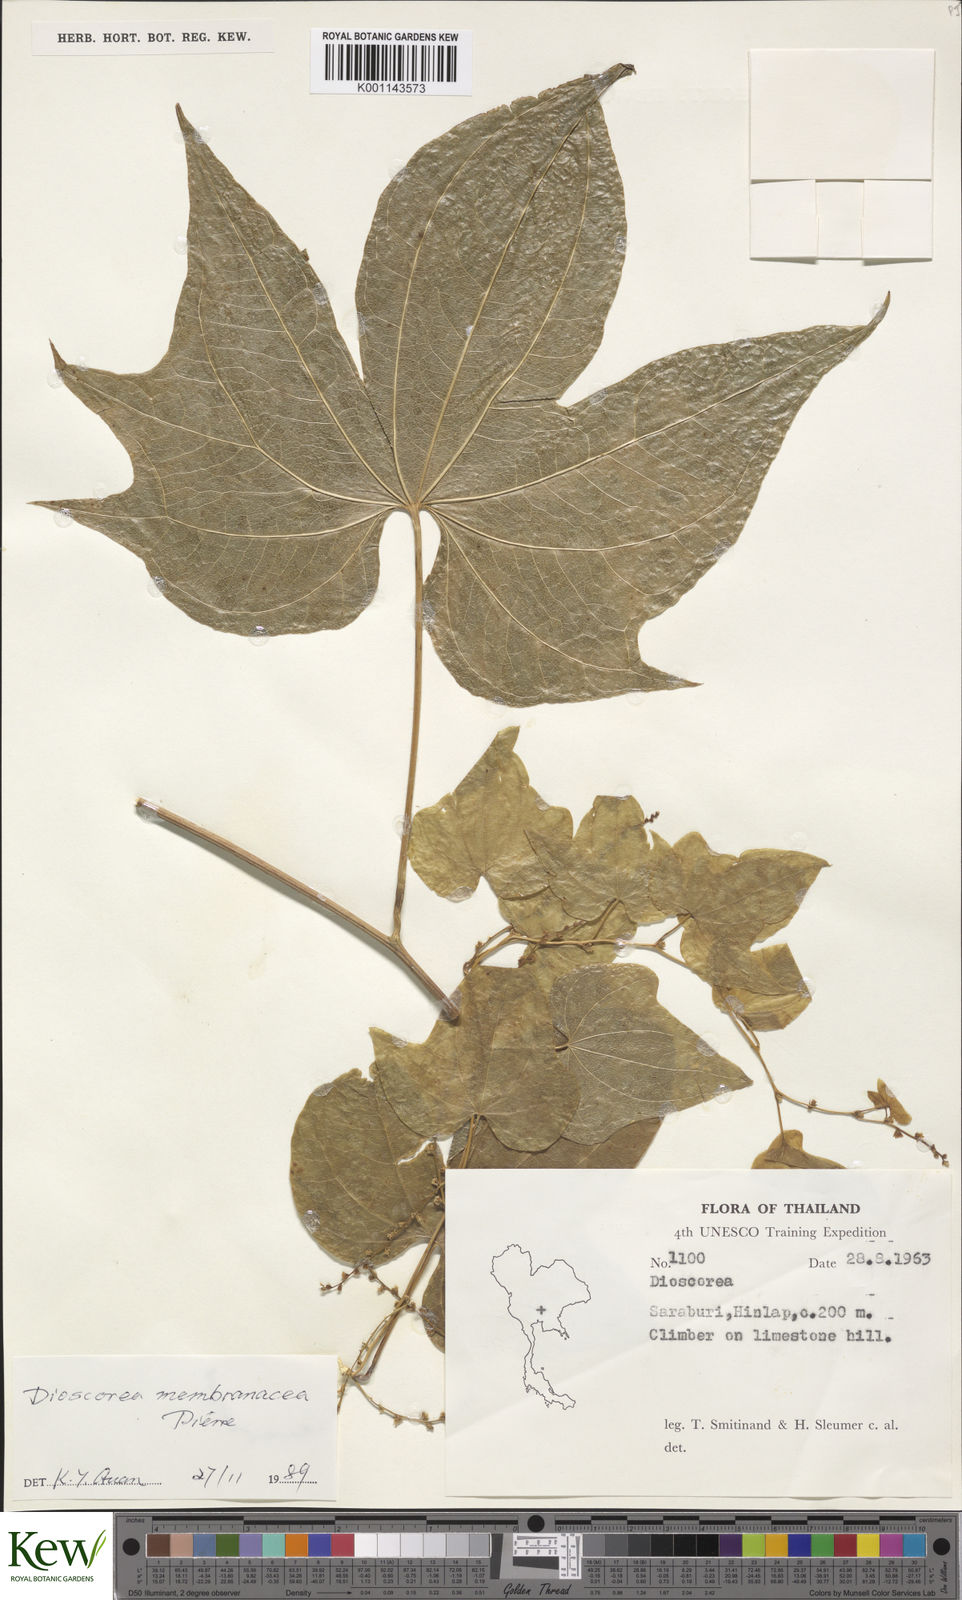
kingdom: Plantae
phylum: Tracheophyta
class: Liliopsida
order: Dioscoreales
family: Dioscoreaceae
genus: Dioscorea
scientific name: Dioscorea membranacea
